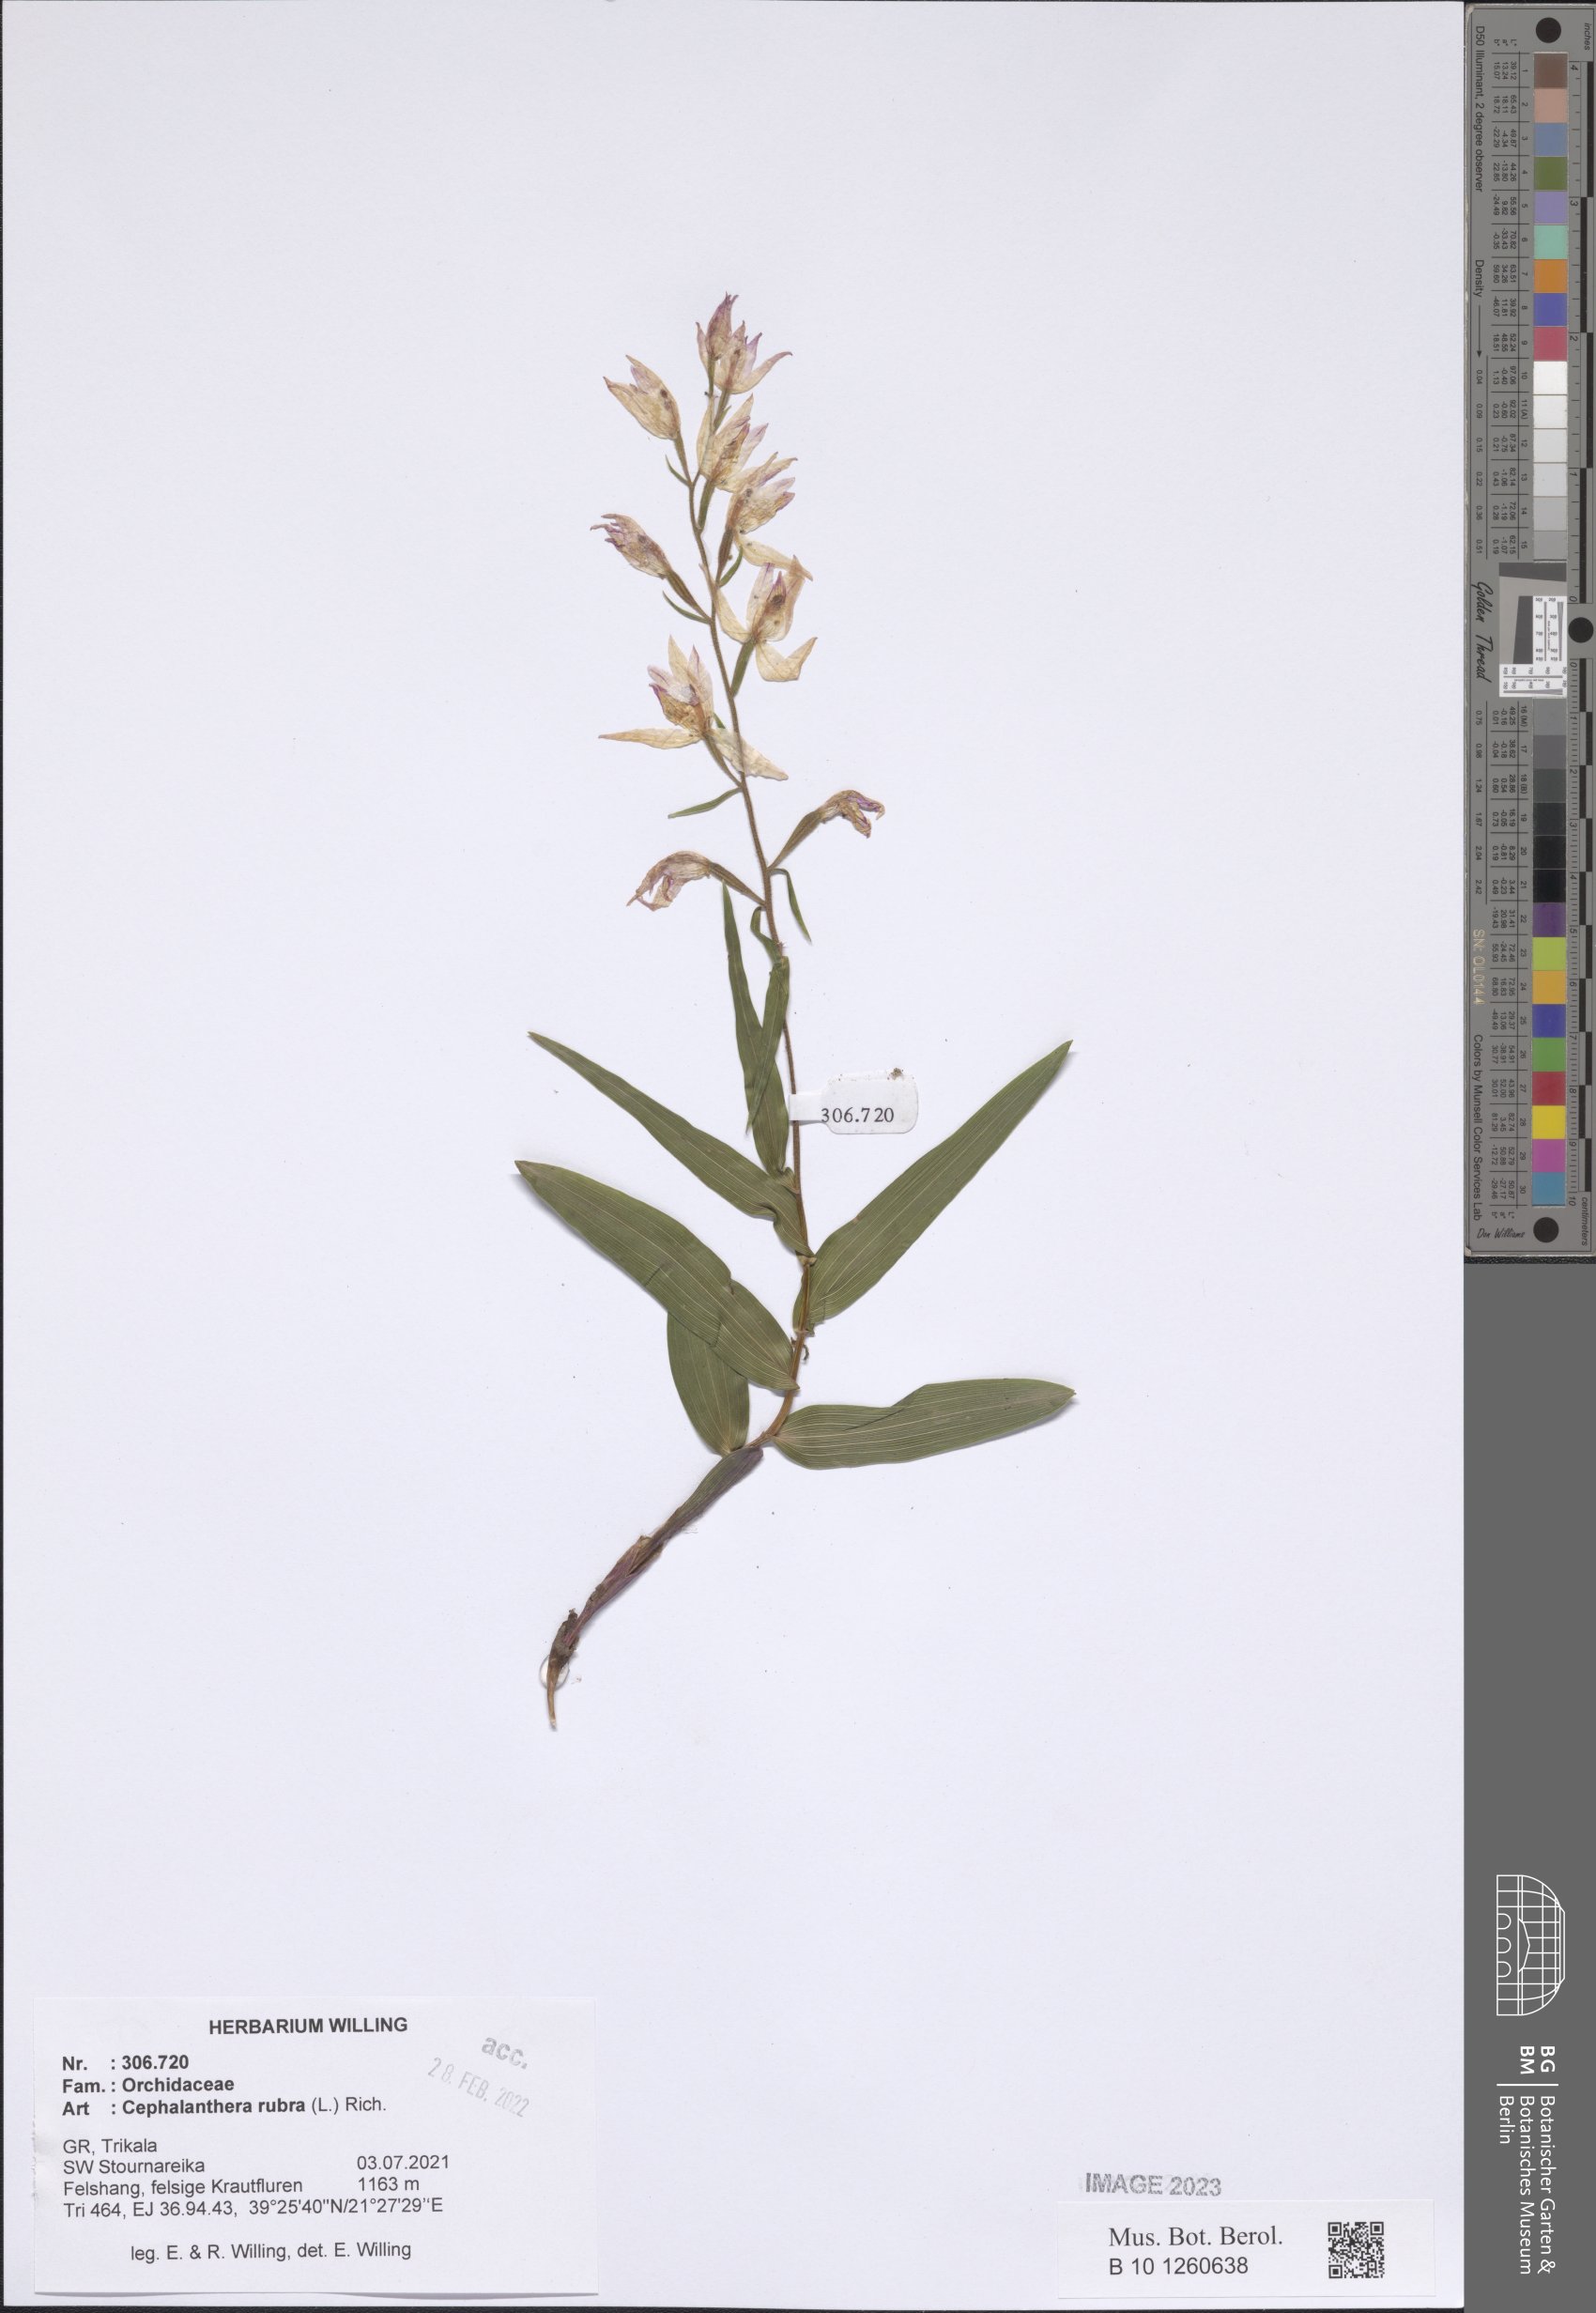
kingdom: Plantae
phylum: Tracheophyta
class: Liliopsida
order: Asparagales
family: Orchidaceae
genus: Cephalanthera
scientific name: Cephalanthera rubra
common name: Red helleborine
